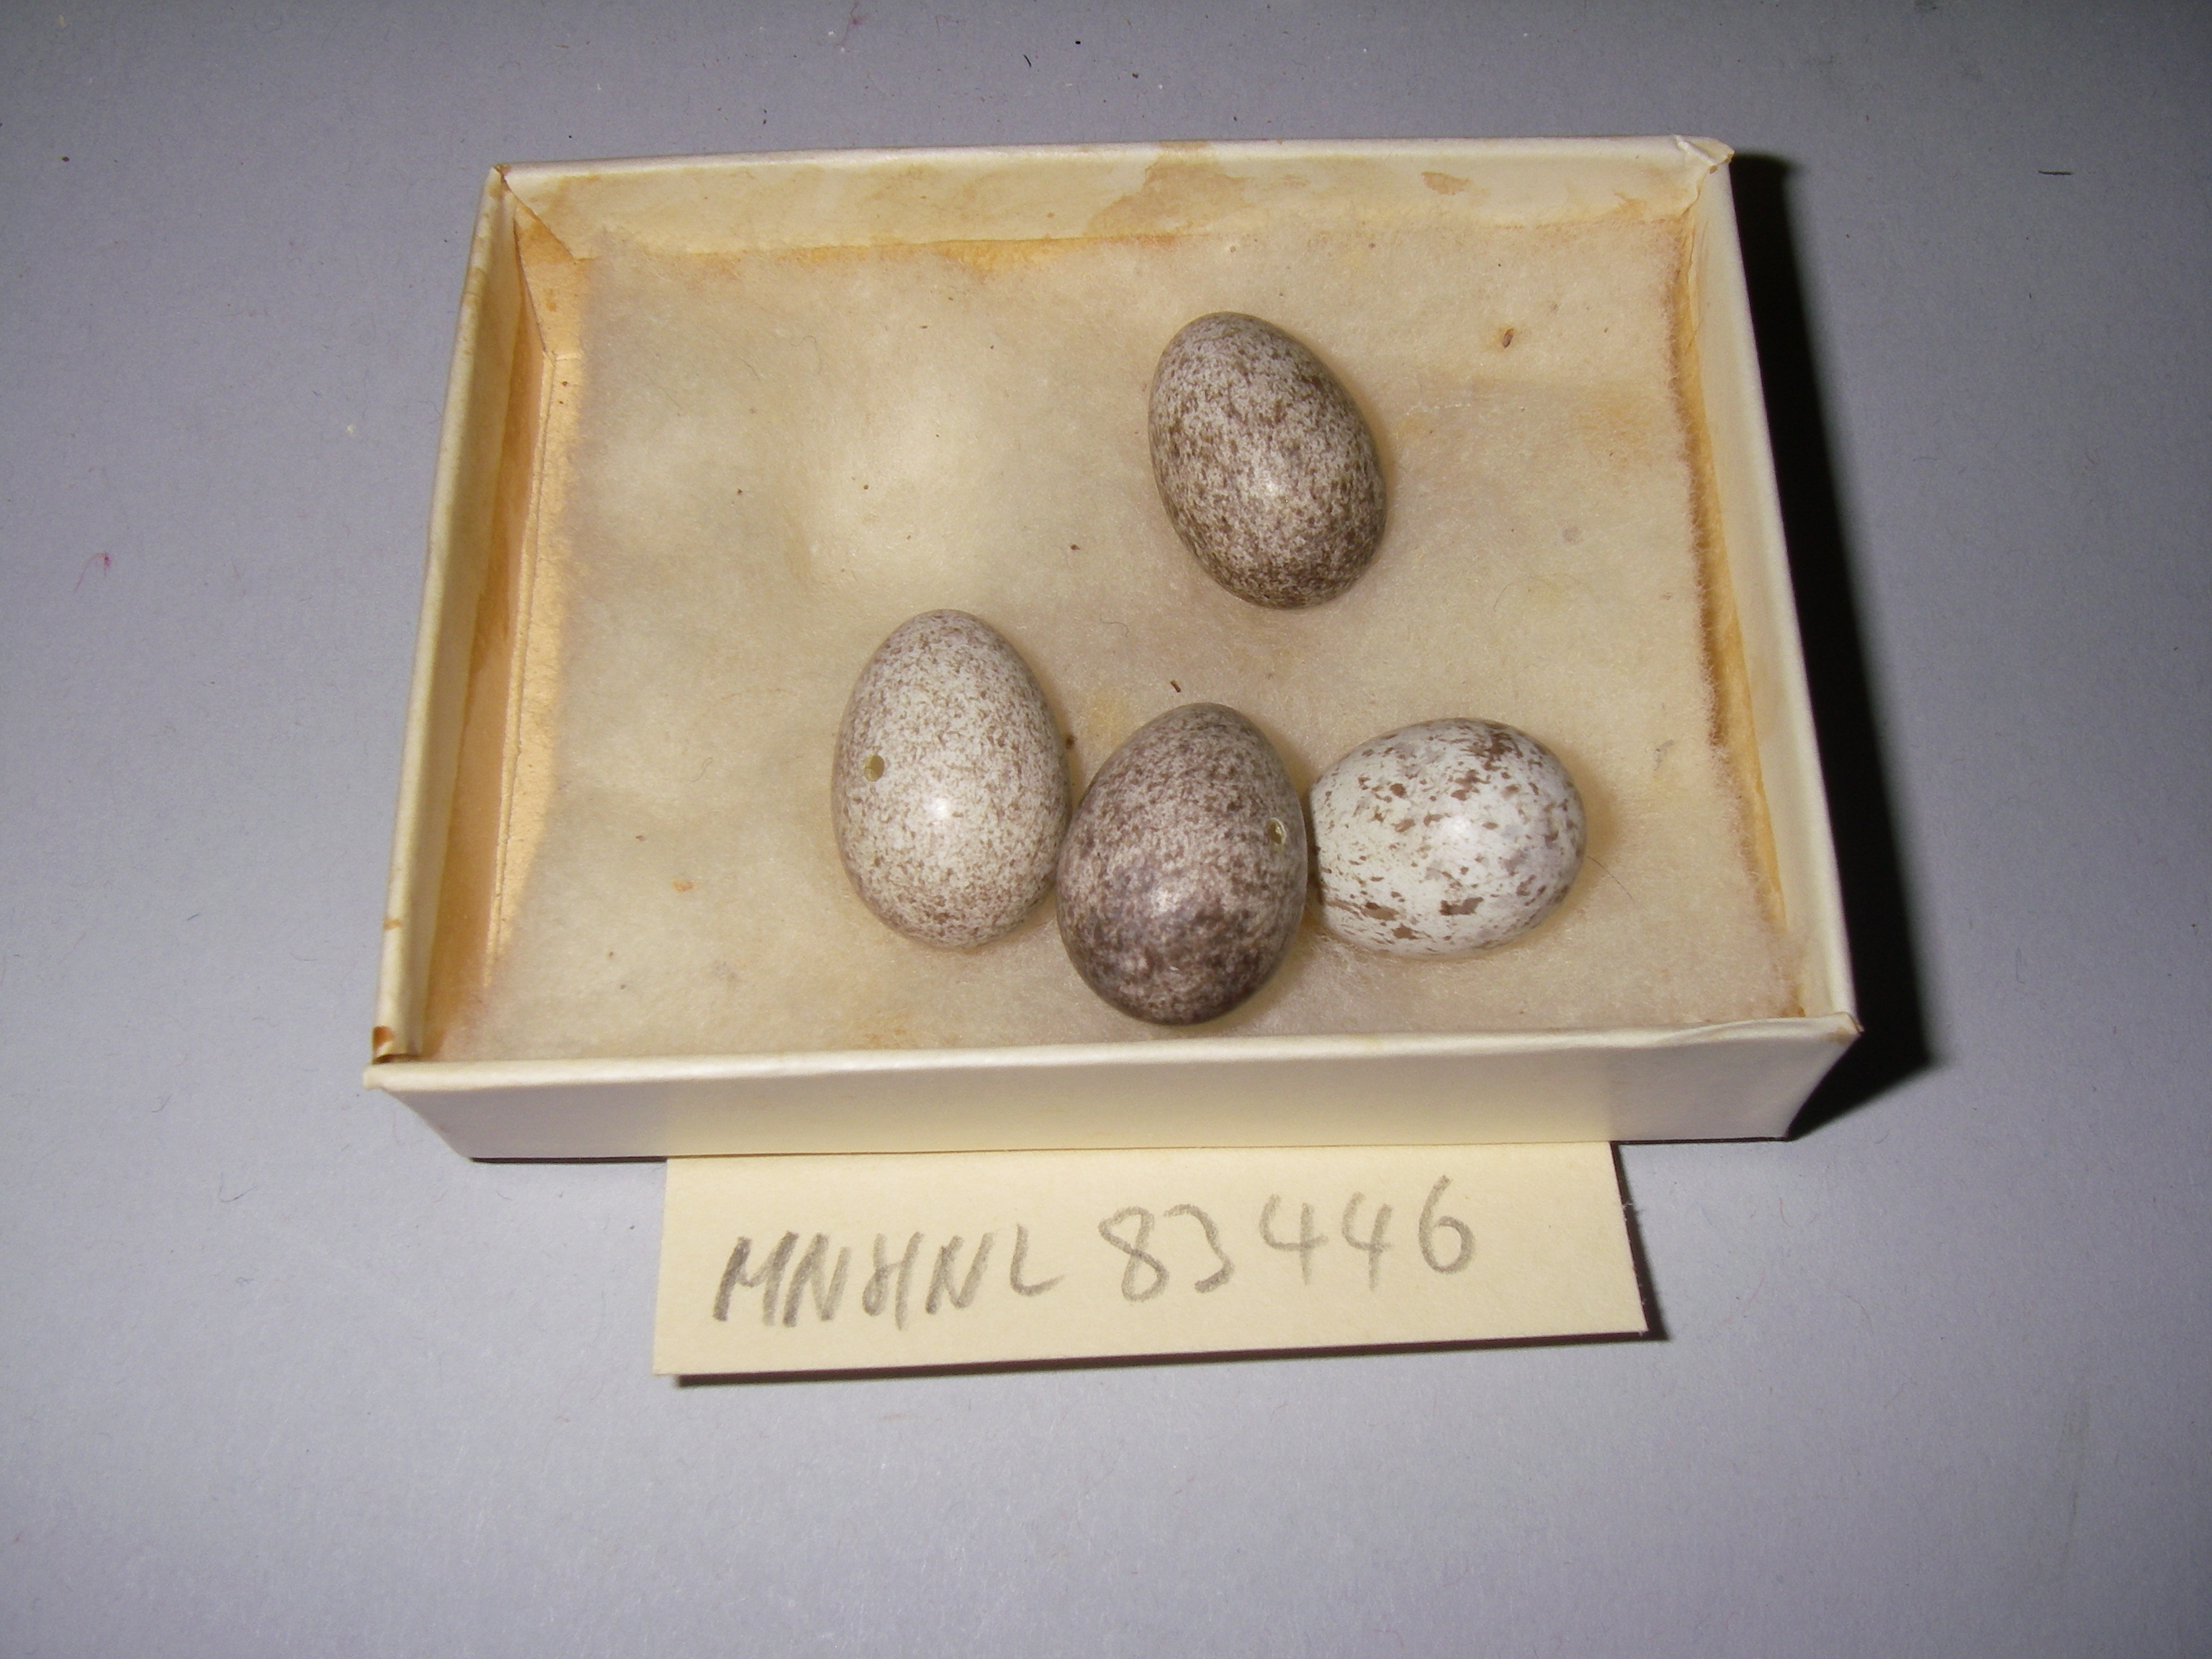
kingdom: Animalia
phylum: Chordata
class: Aves
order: Passeriformes
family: Passeridae
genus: Passer
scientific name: Passer montanus
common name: Eurasian tree sparrow
